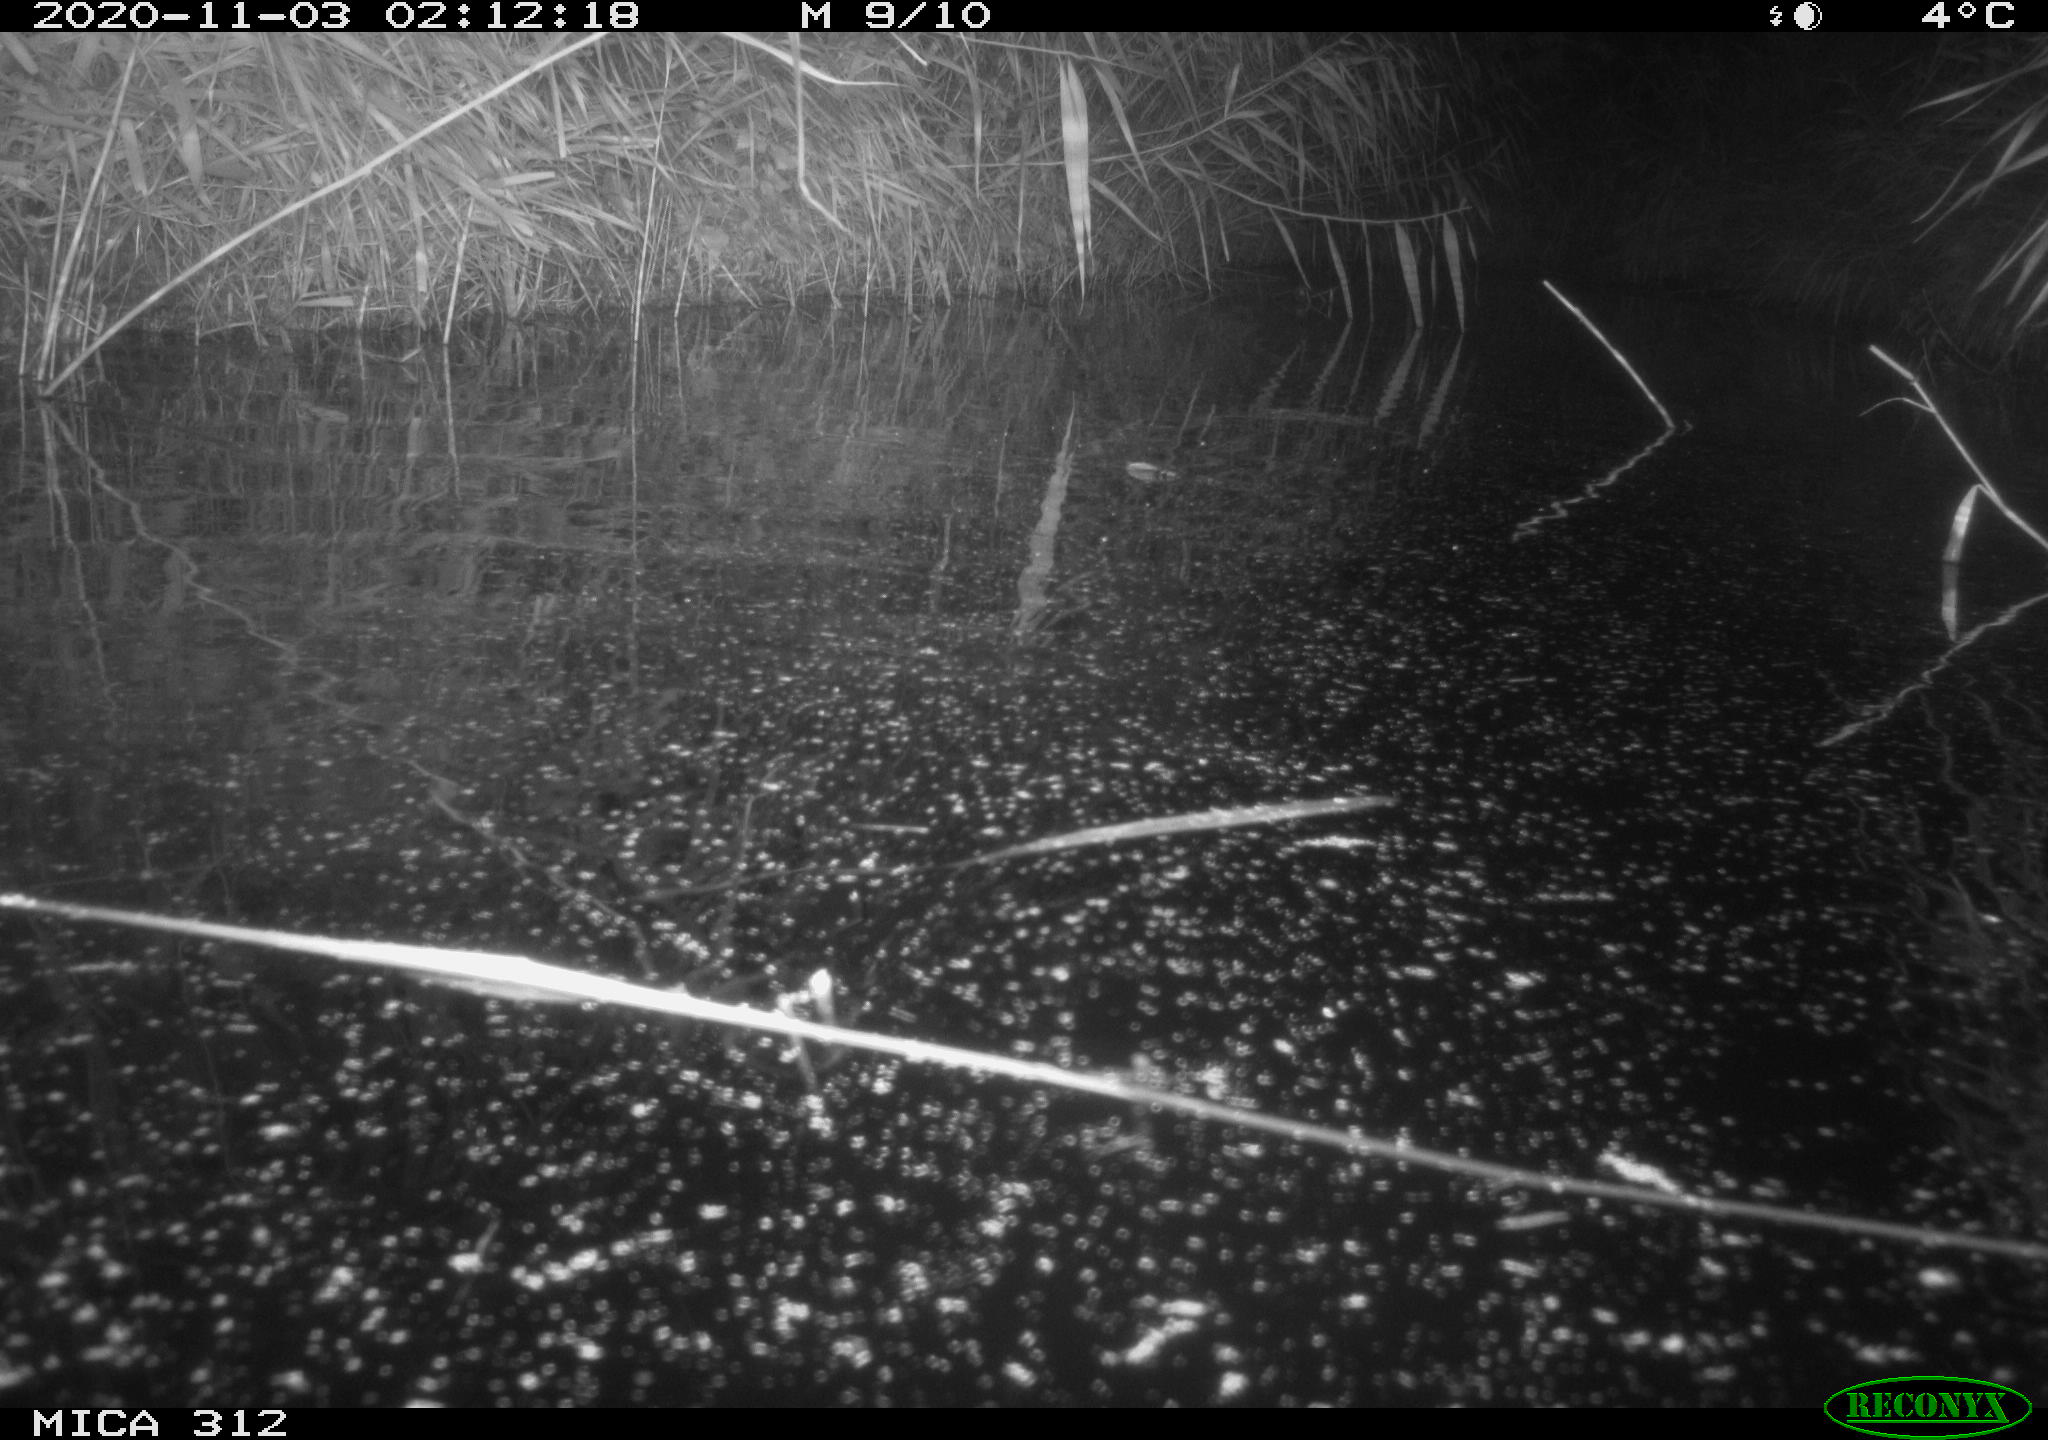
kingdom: Animalia
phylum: Chordata
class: Mammalia
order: Rodentia
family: Cricetidae
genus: Ondatra
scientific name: Ondatra zibethicus
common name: Muskrat
